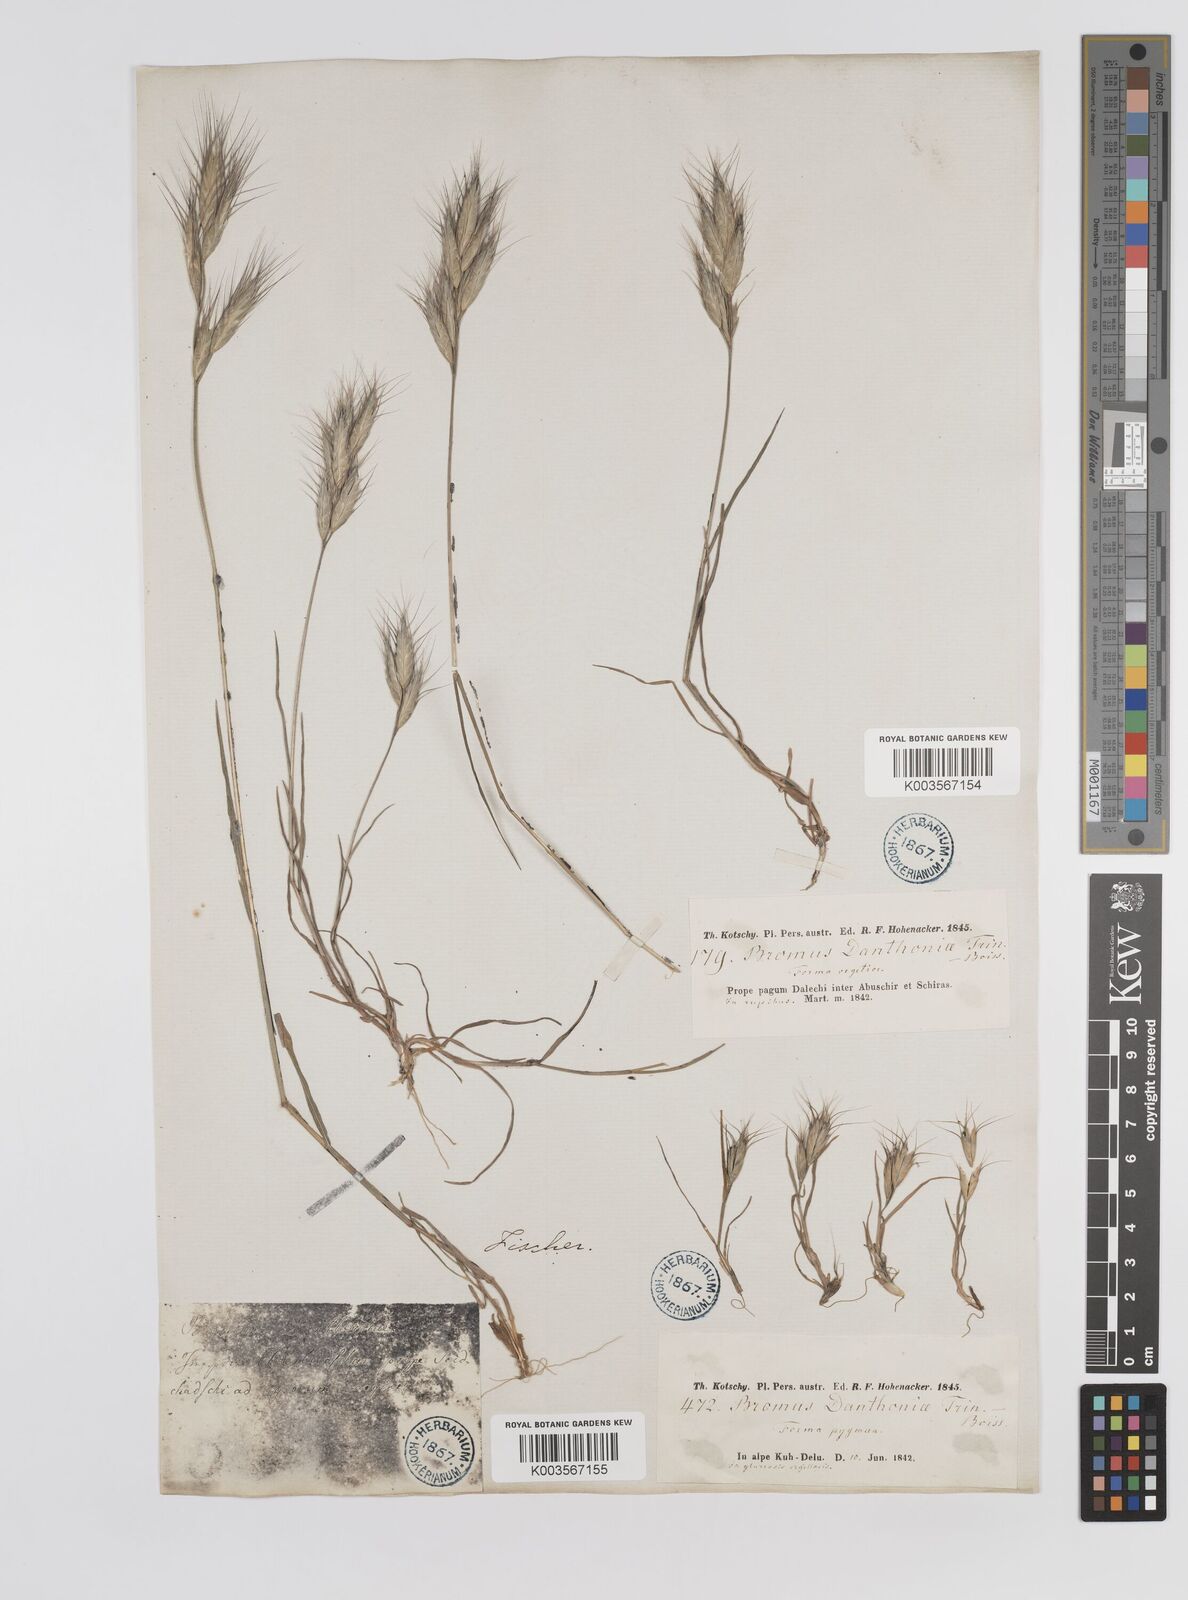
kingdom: Plantae
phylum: Tracheophyta
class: Liliopsida
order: Poales
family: Poaceae
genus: Bromus
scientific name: Bromus danthoniae
